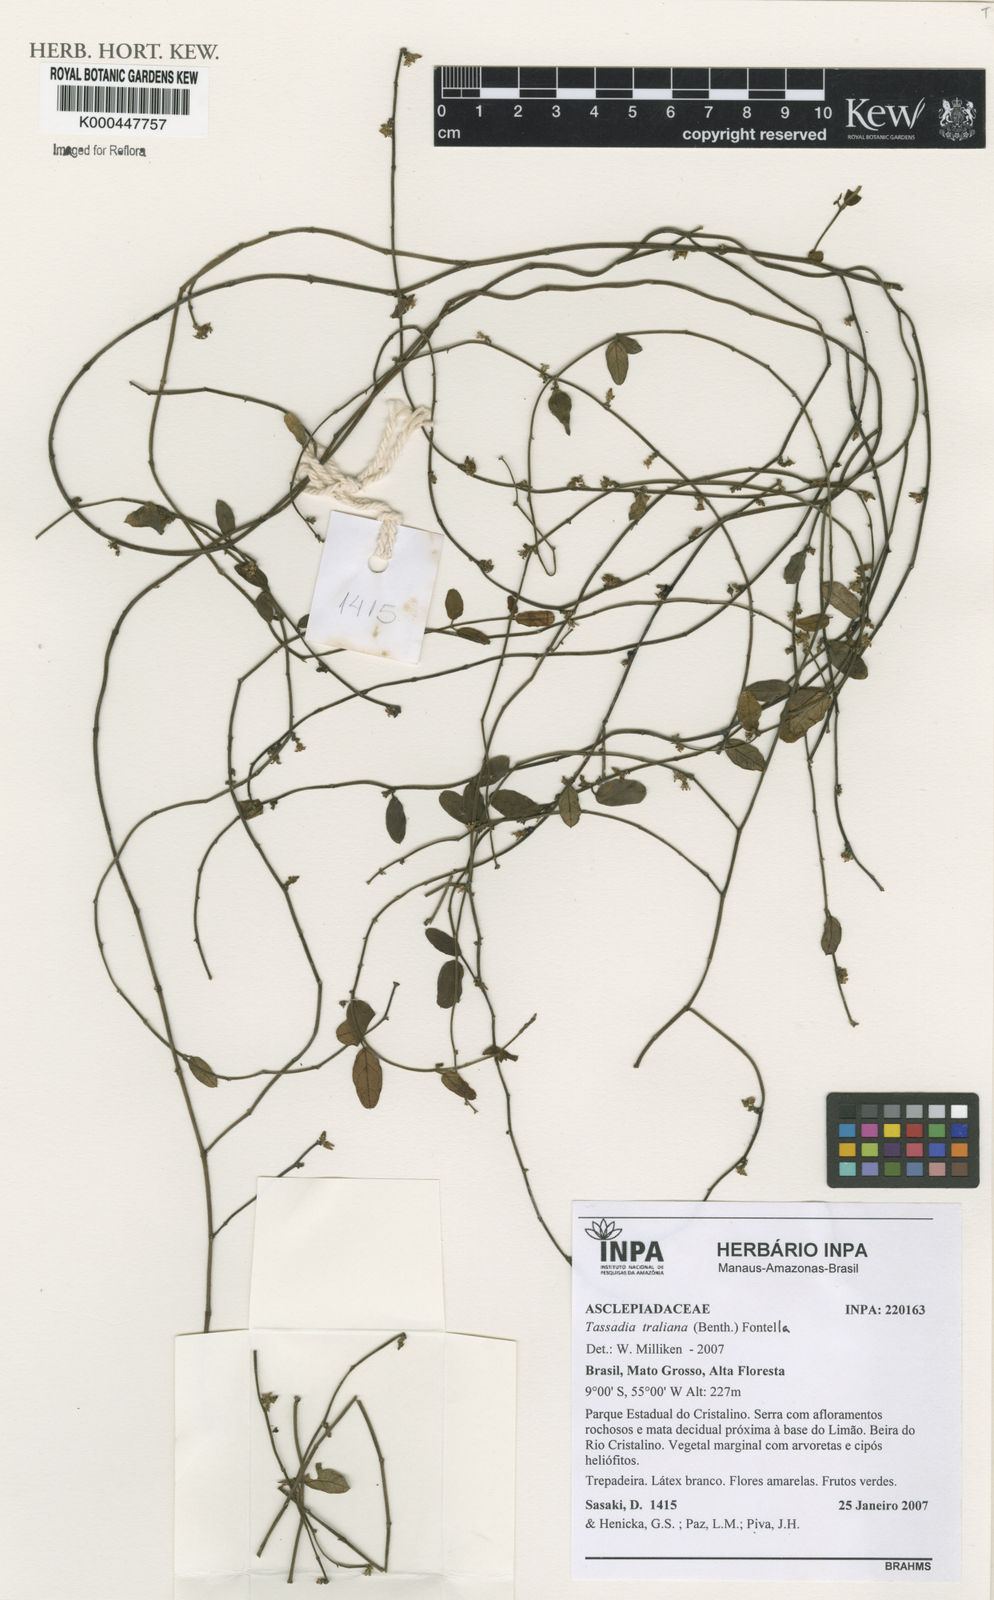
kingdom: Plantae
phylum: Tracheophyta
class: Magnoliopsida
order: Gentianales
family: Apocynaceae
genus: Tassadia
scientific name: Tassadia
